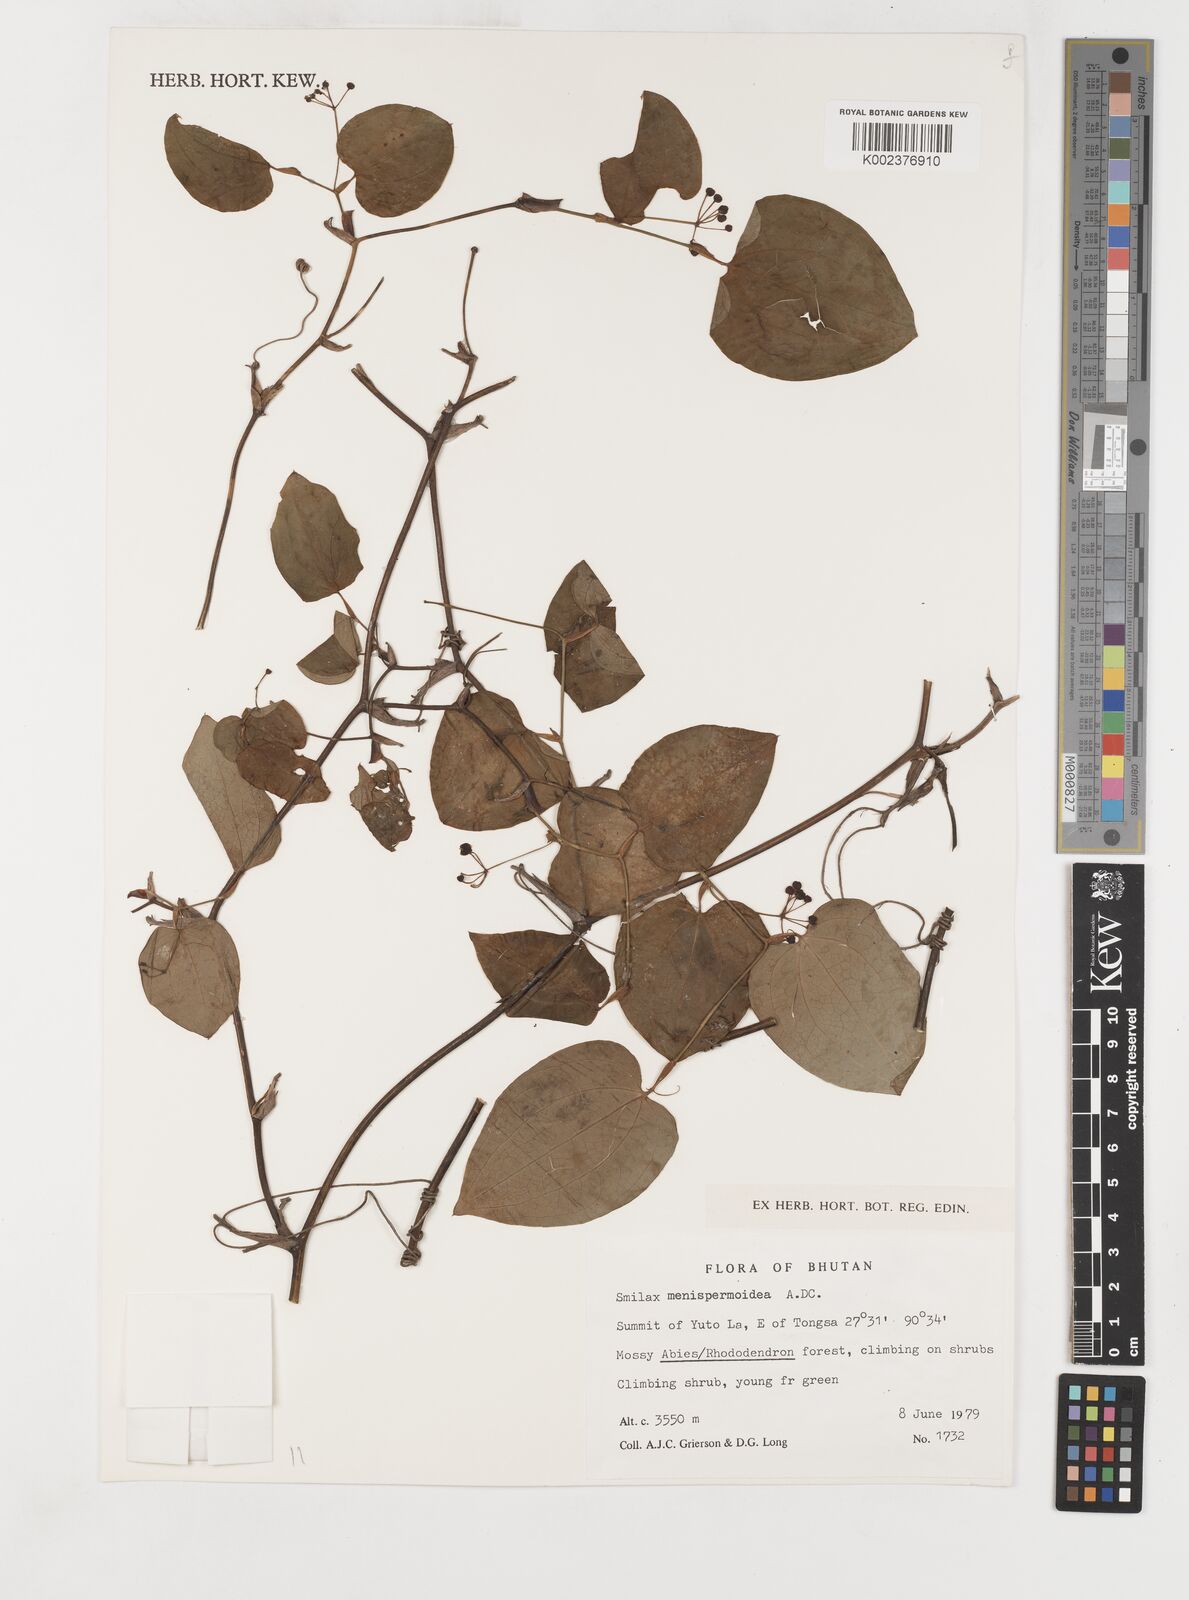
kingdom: Plantae
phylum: Tracheophyta
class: Liliopsida
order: Liliales
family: Smilacaceae
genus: Smilax
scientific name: Smilax menispermoidea
